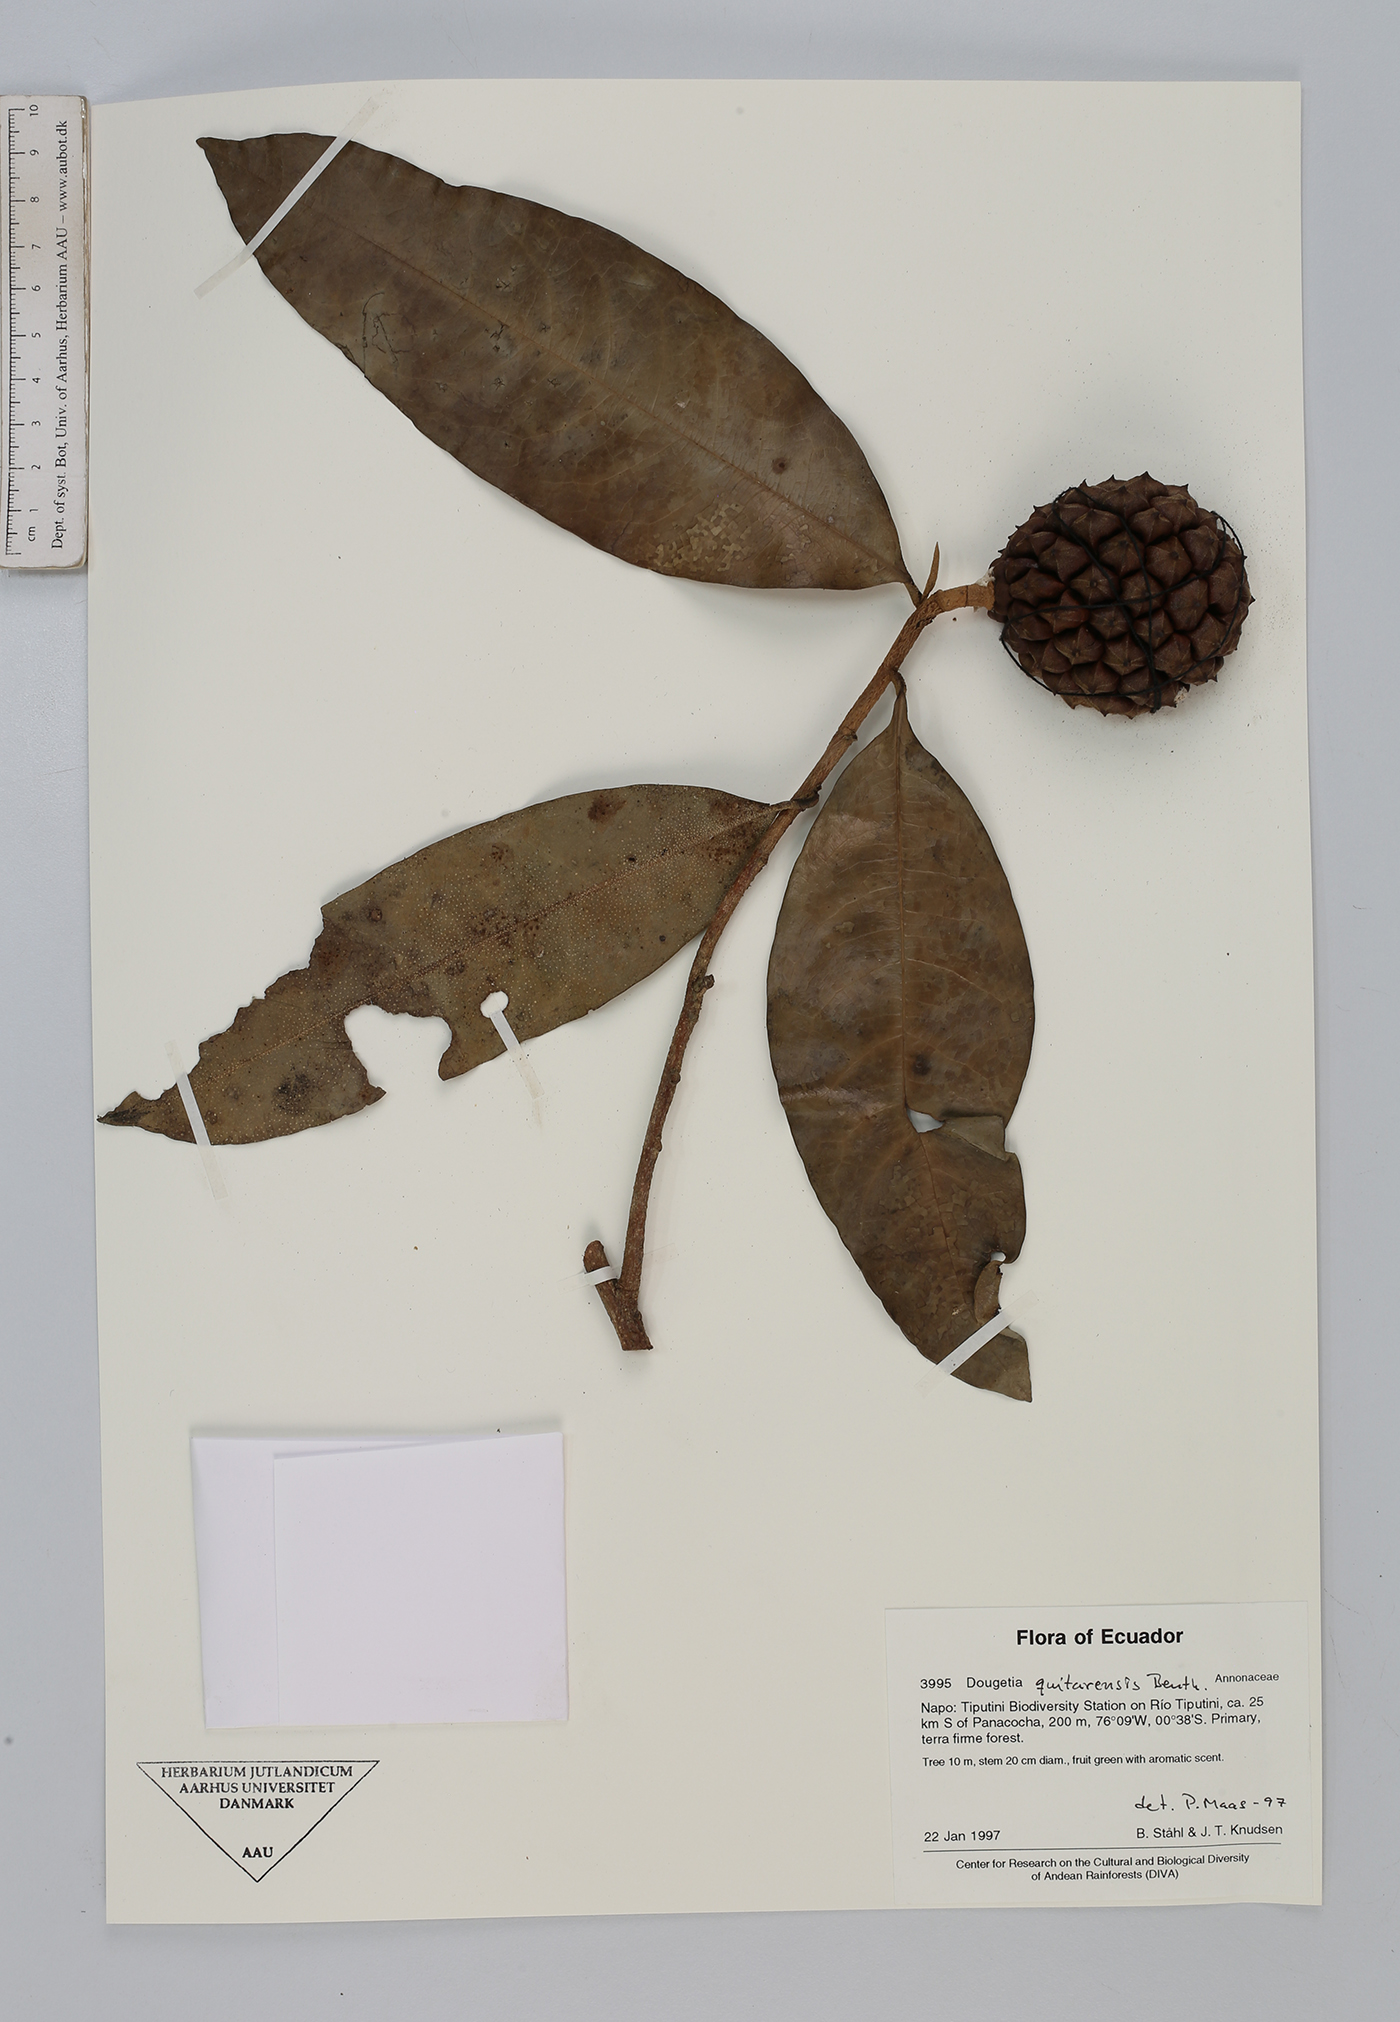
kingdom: Plantae
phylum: Tracheophyta
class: Magnoliopsida
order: Magnoliales
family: Annonaceae
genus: Duguetia
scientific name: Duguetia quitarensis
